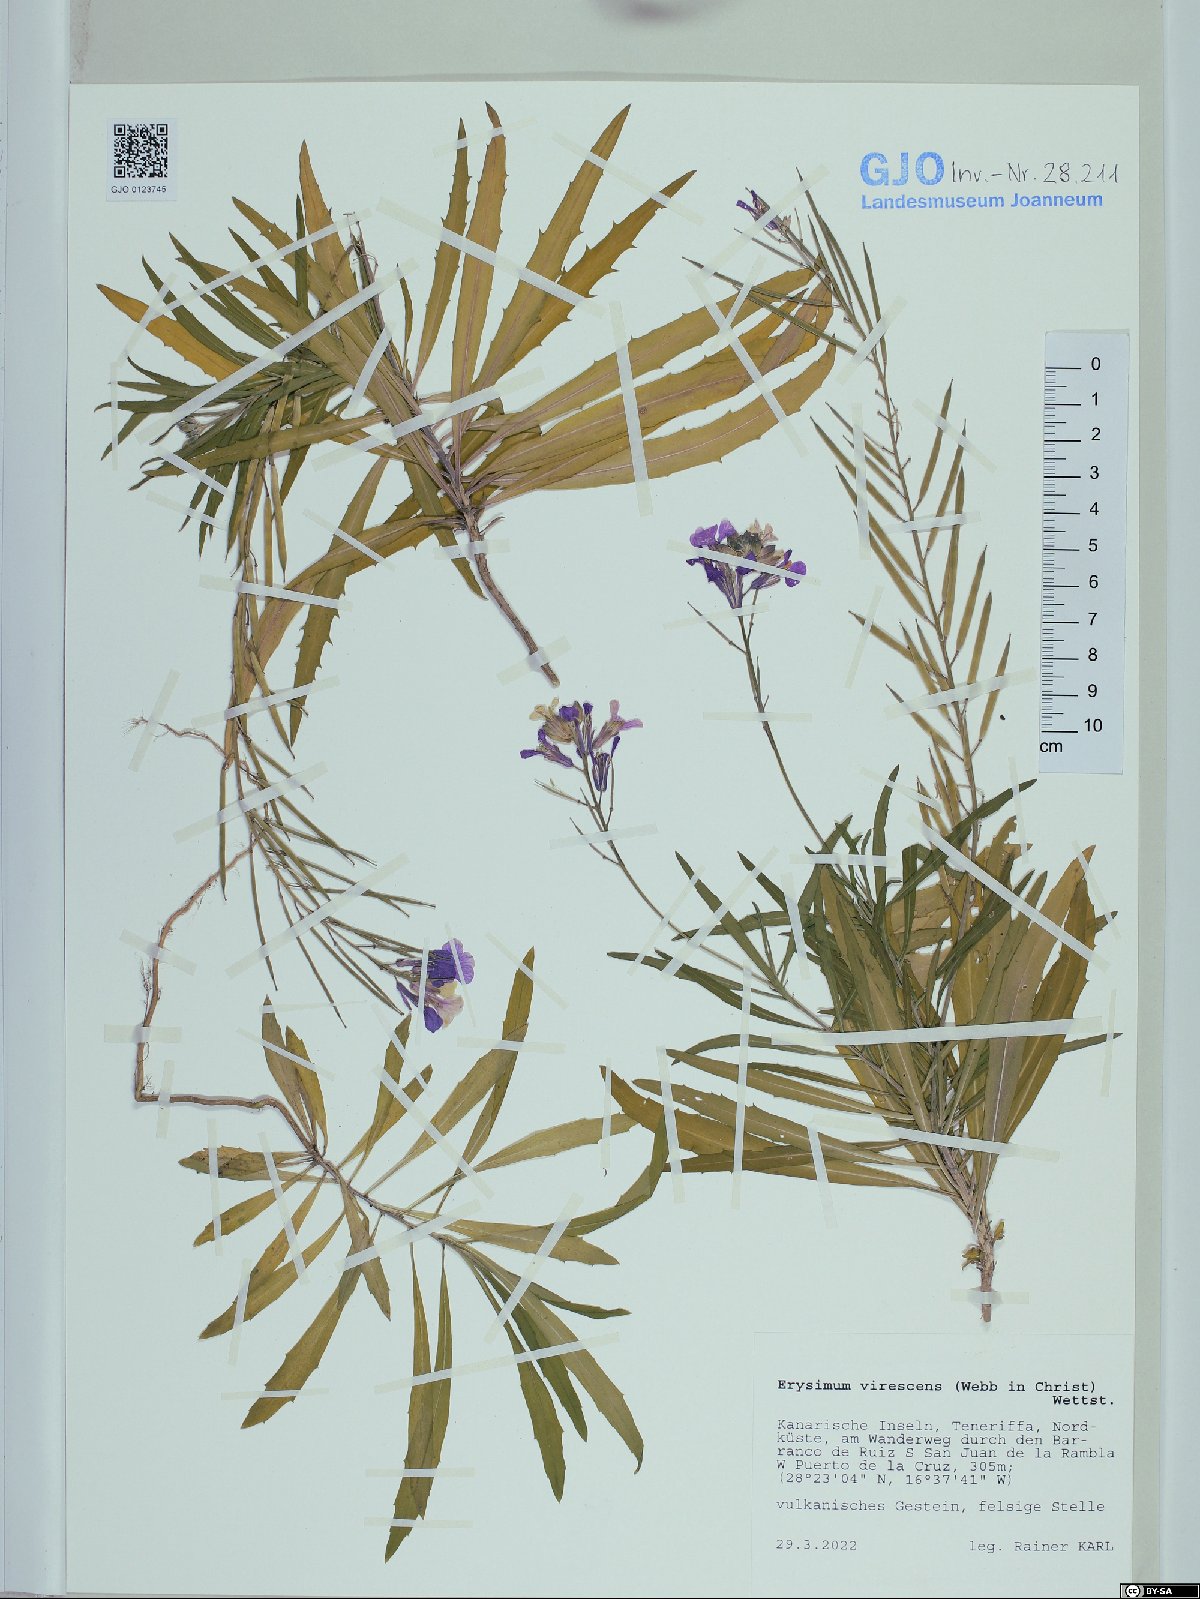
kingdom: Plantae
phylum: Tracheophyta
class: Magnoliopsida
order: Brassicales
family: Brassicaceae
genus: Erysimum
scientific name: Erysimum bicolor
